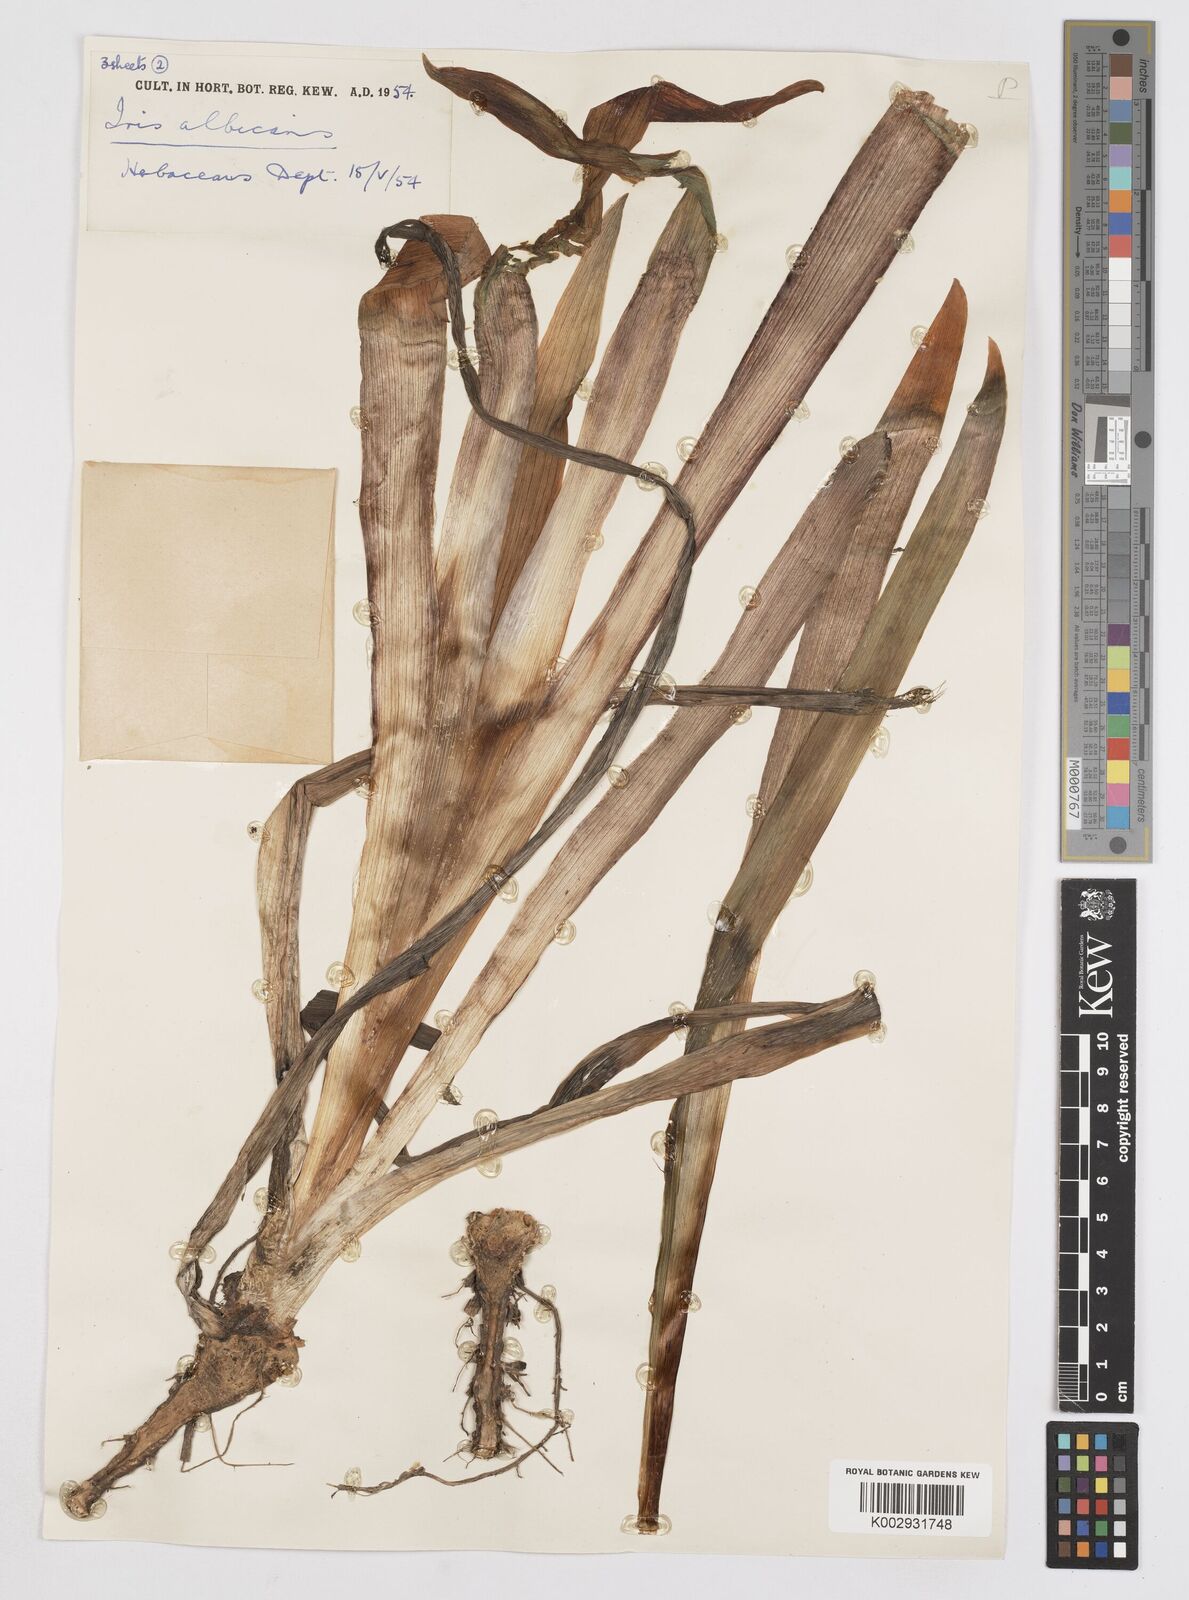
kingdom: Plantae
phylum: Tracheophyta
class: Liliopsida
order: Asparagales
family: Iridaceae
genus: Iris
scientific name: Iris florentina
